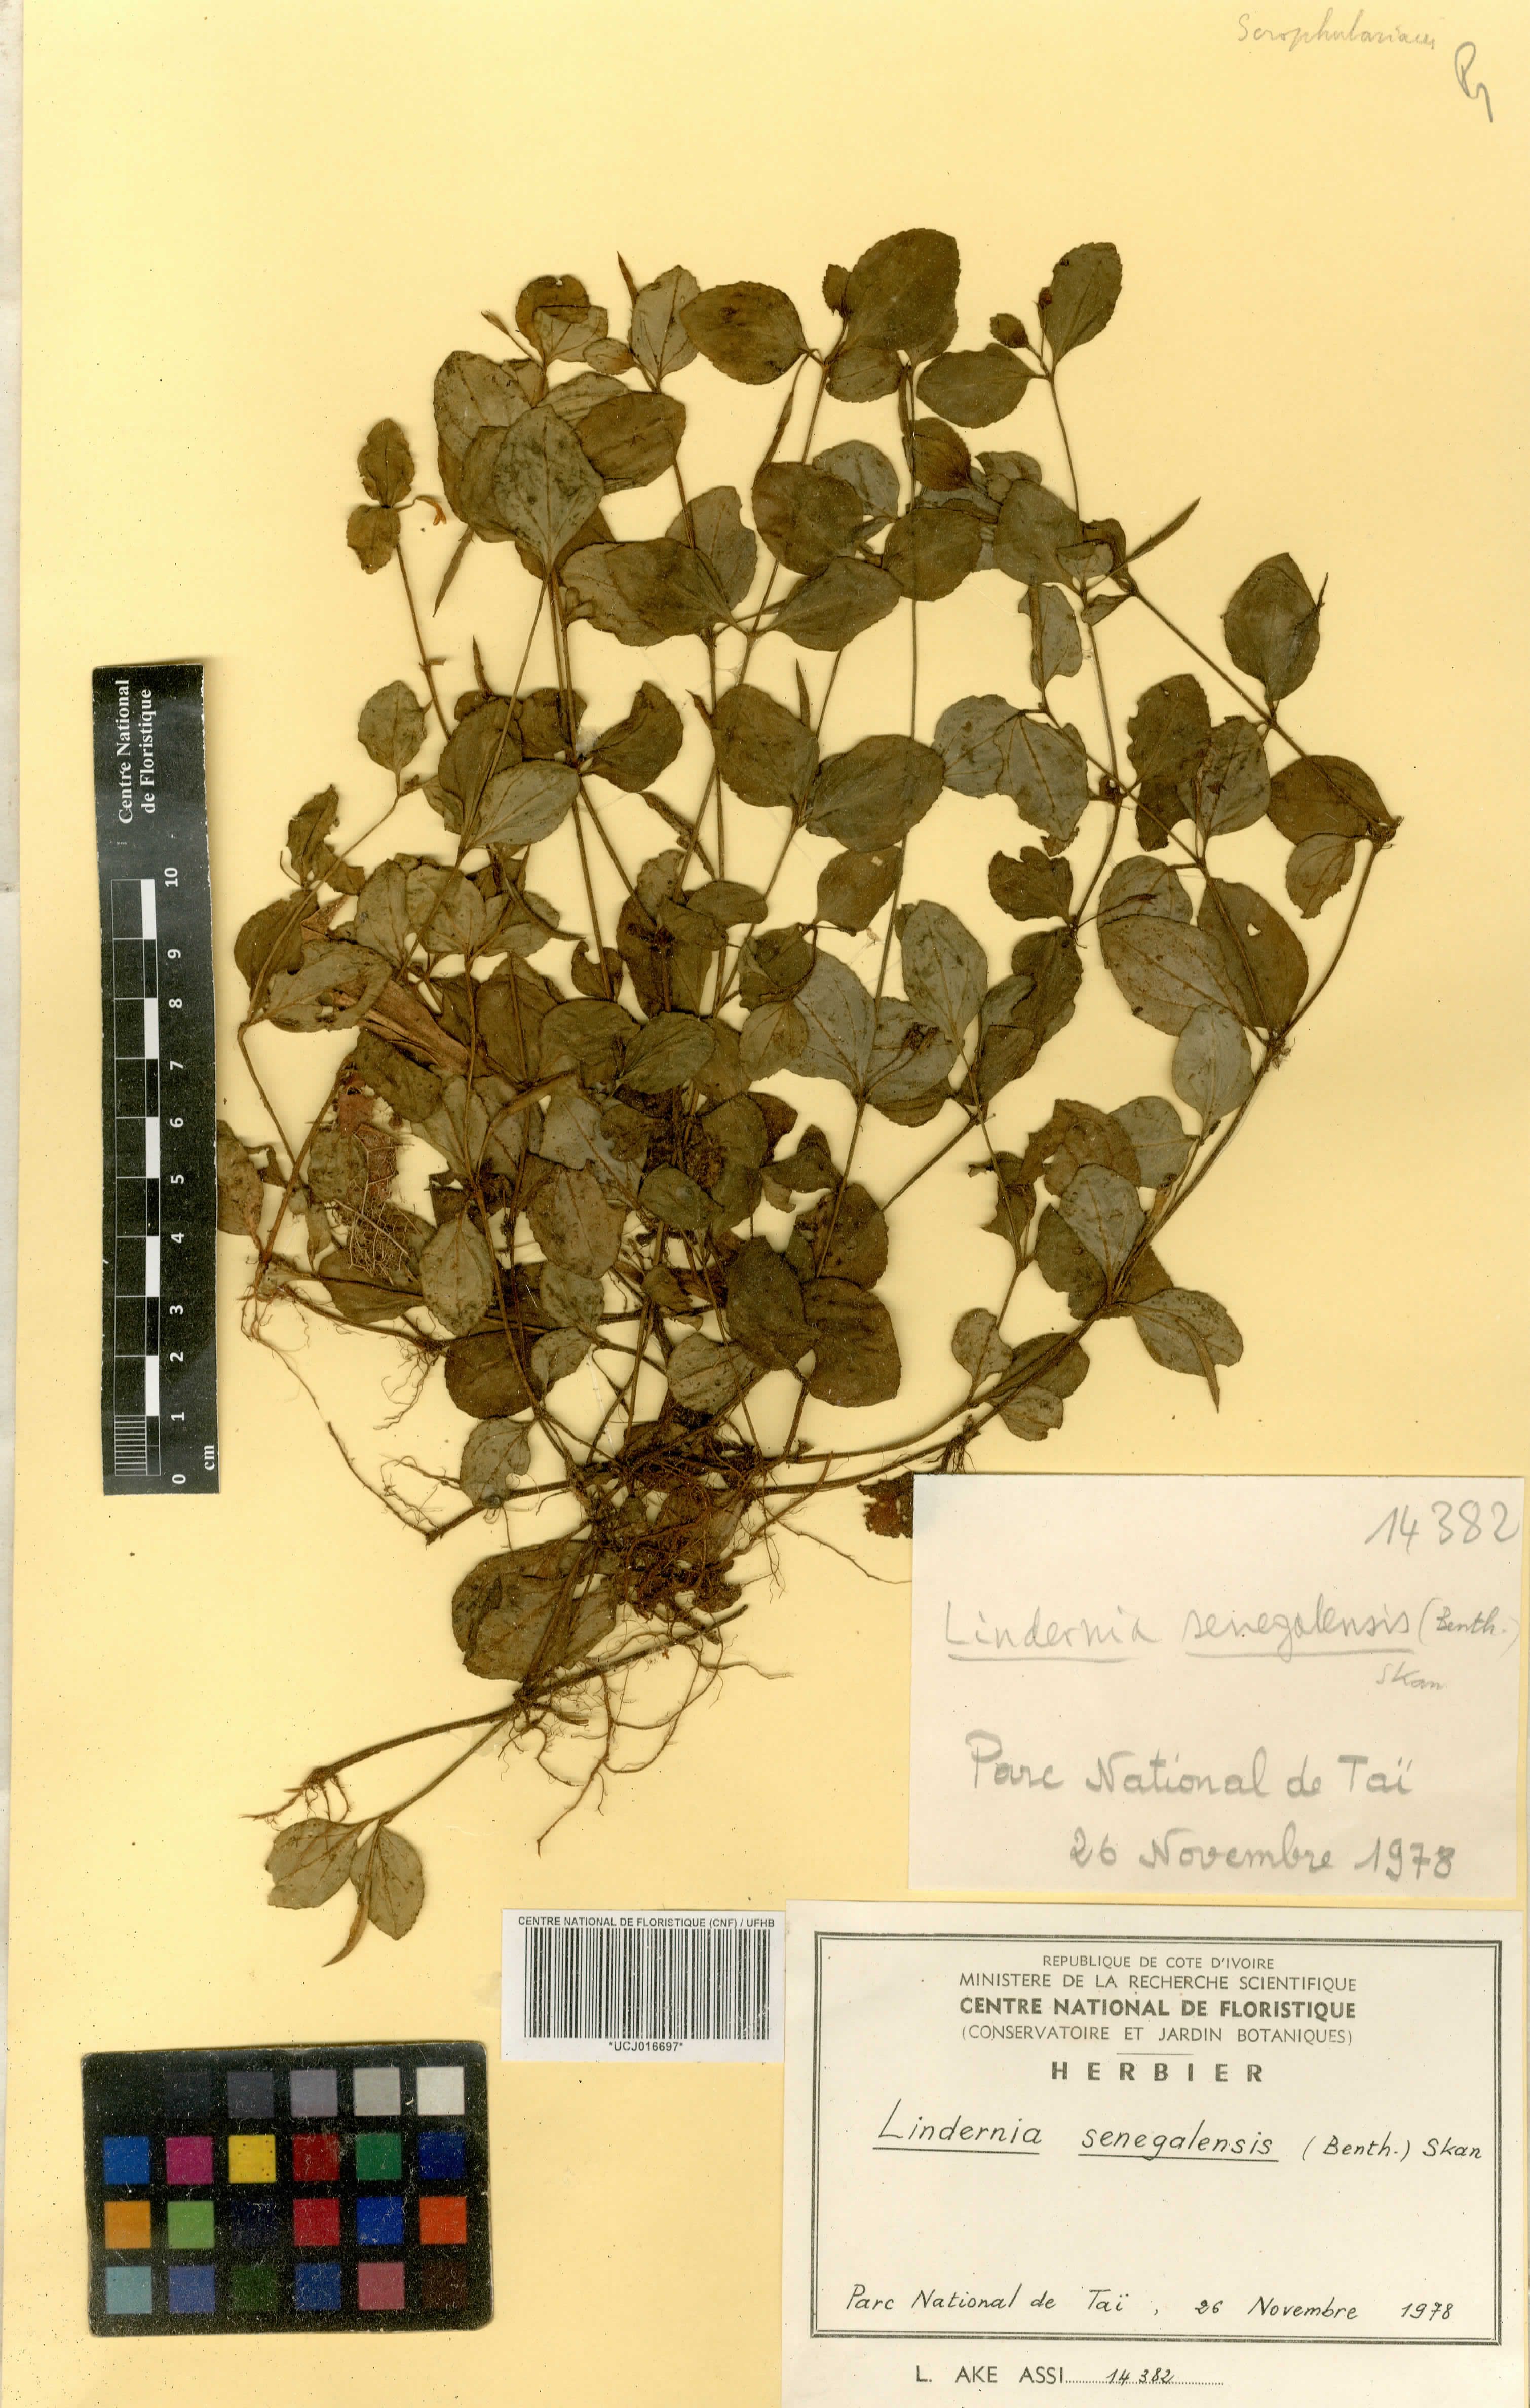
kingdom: Plantae
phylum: Tracheophyta
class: Magnoliopsida
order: Lamiales
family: Linderniaceae
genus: Vandellia
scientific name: Vandellia senegalensis
